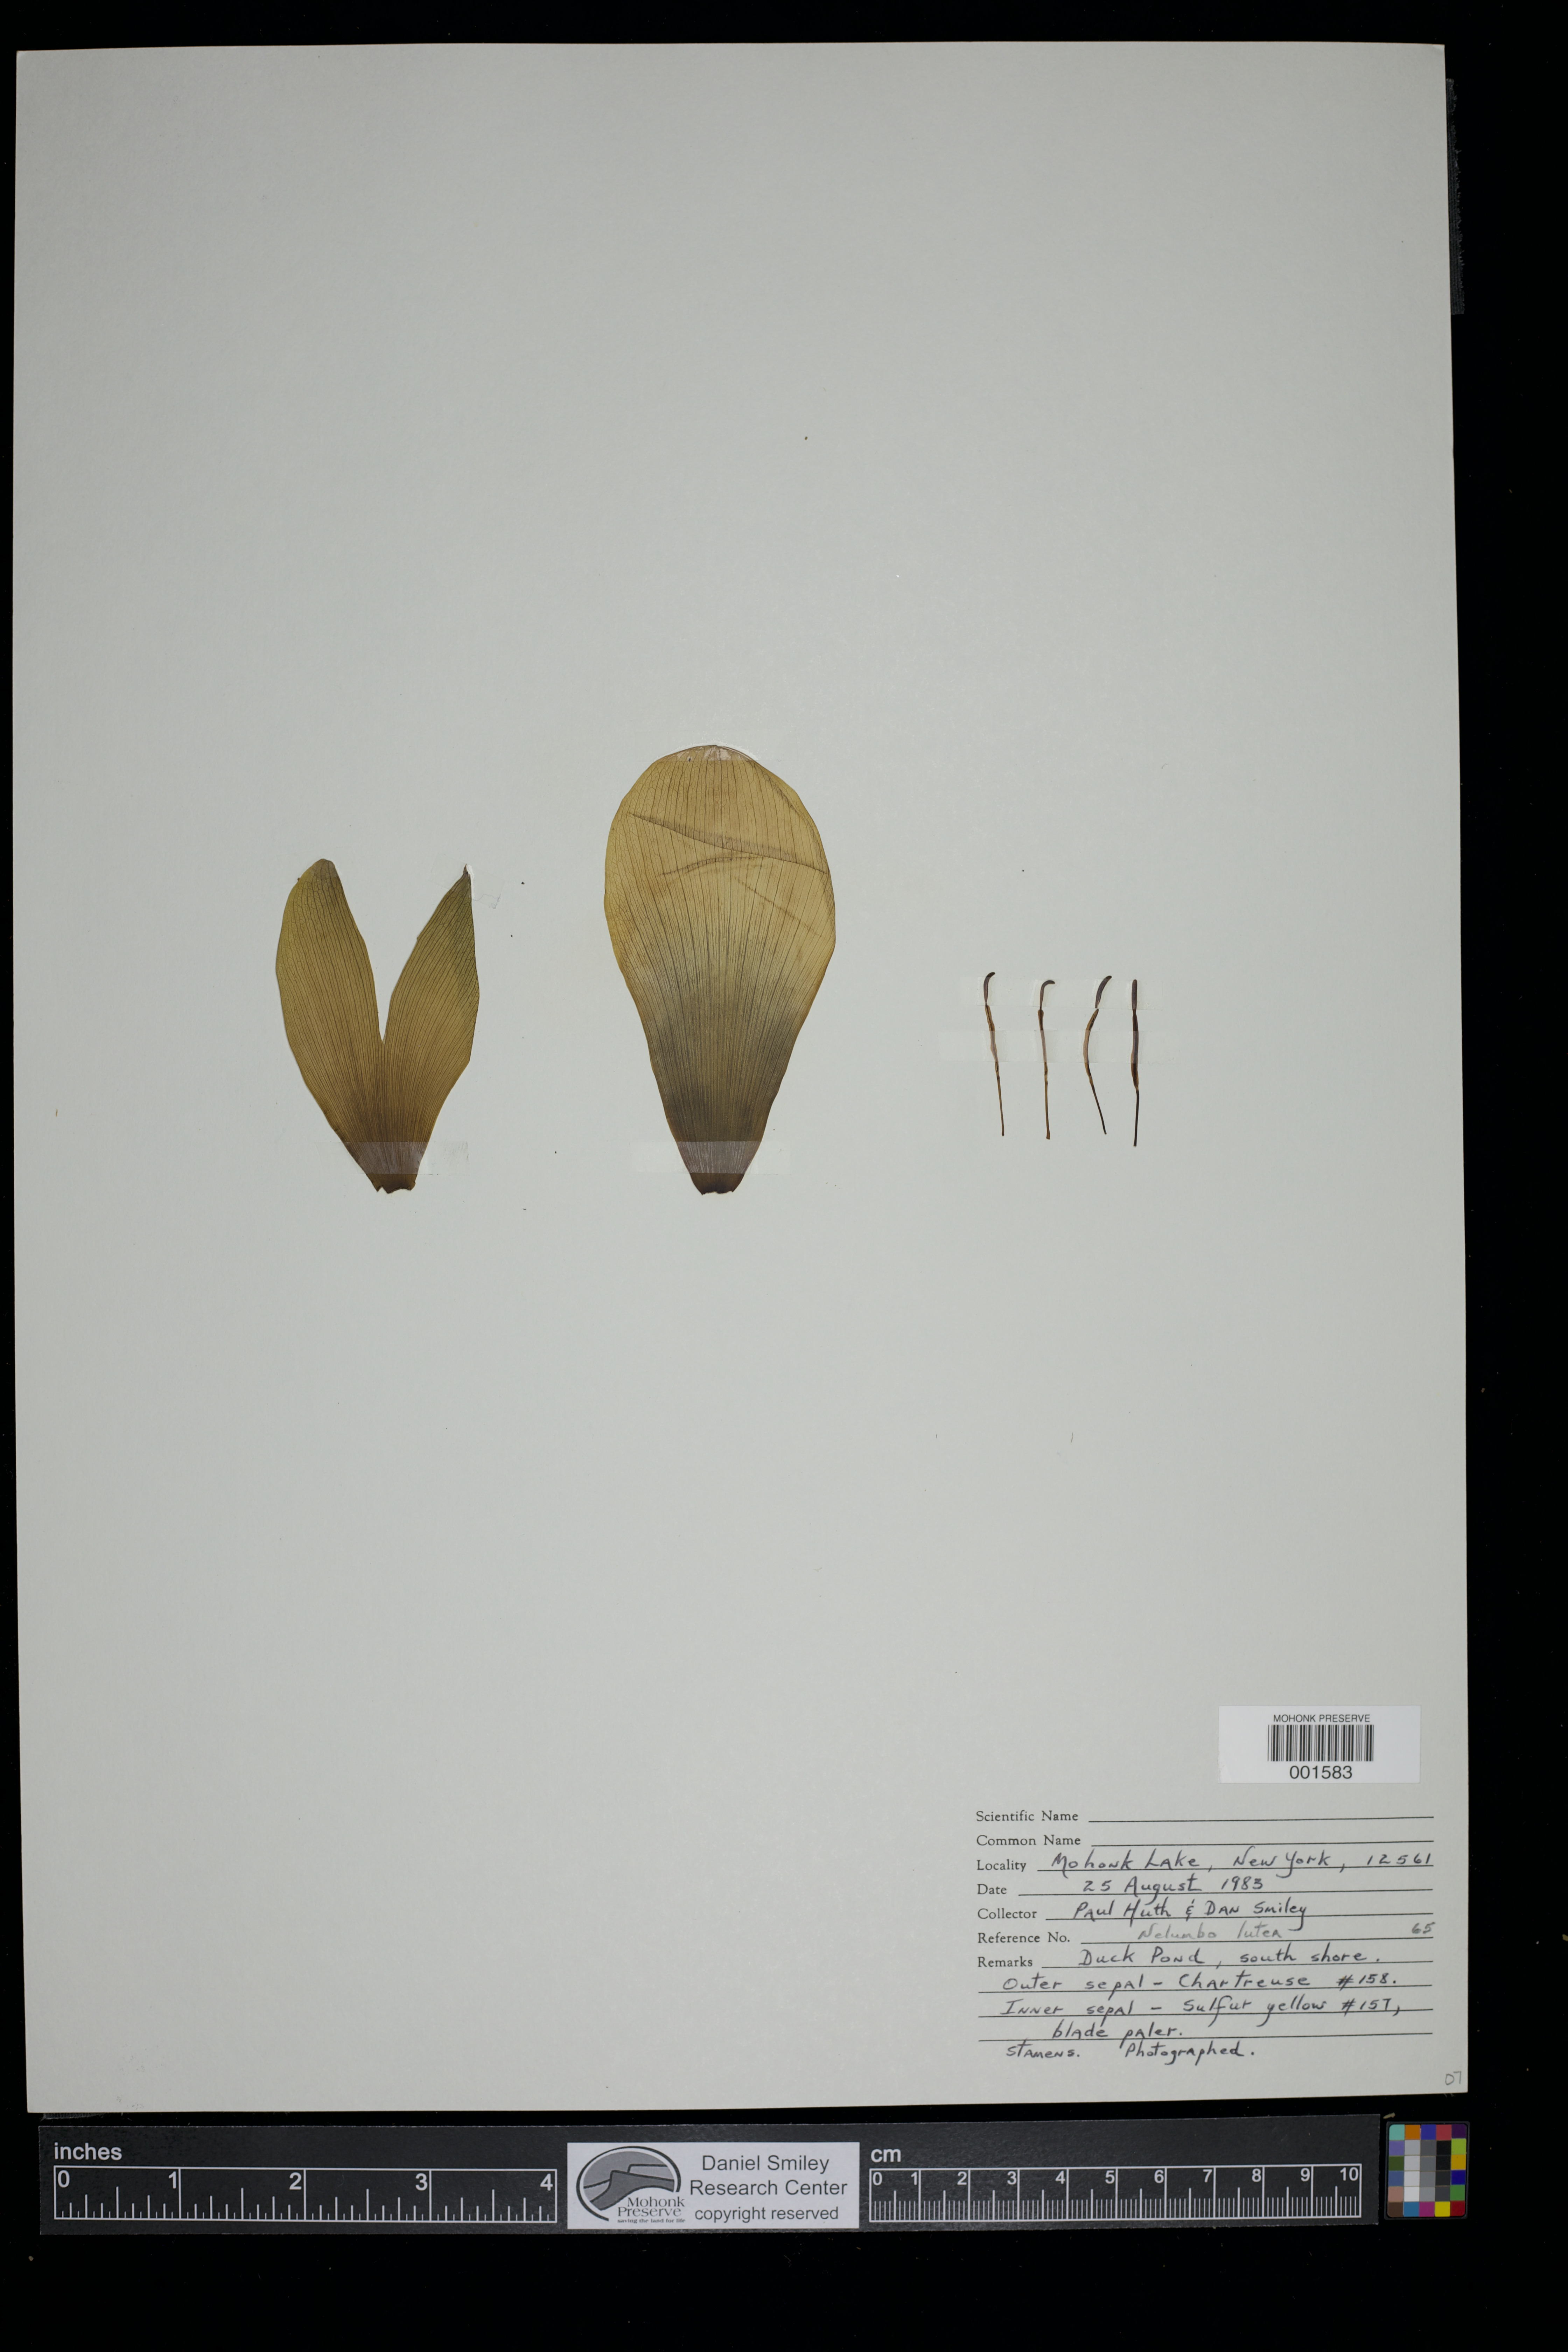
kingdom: Plantae
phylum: Tracheophyta
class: Magnoliopsida
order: Proteales
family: Nelumbonaceae
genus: Nelumbo
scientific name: Nelumbo lutea
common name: American lotus
